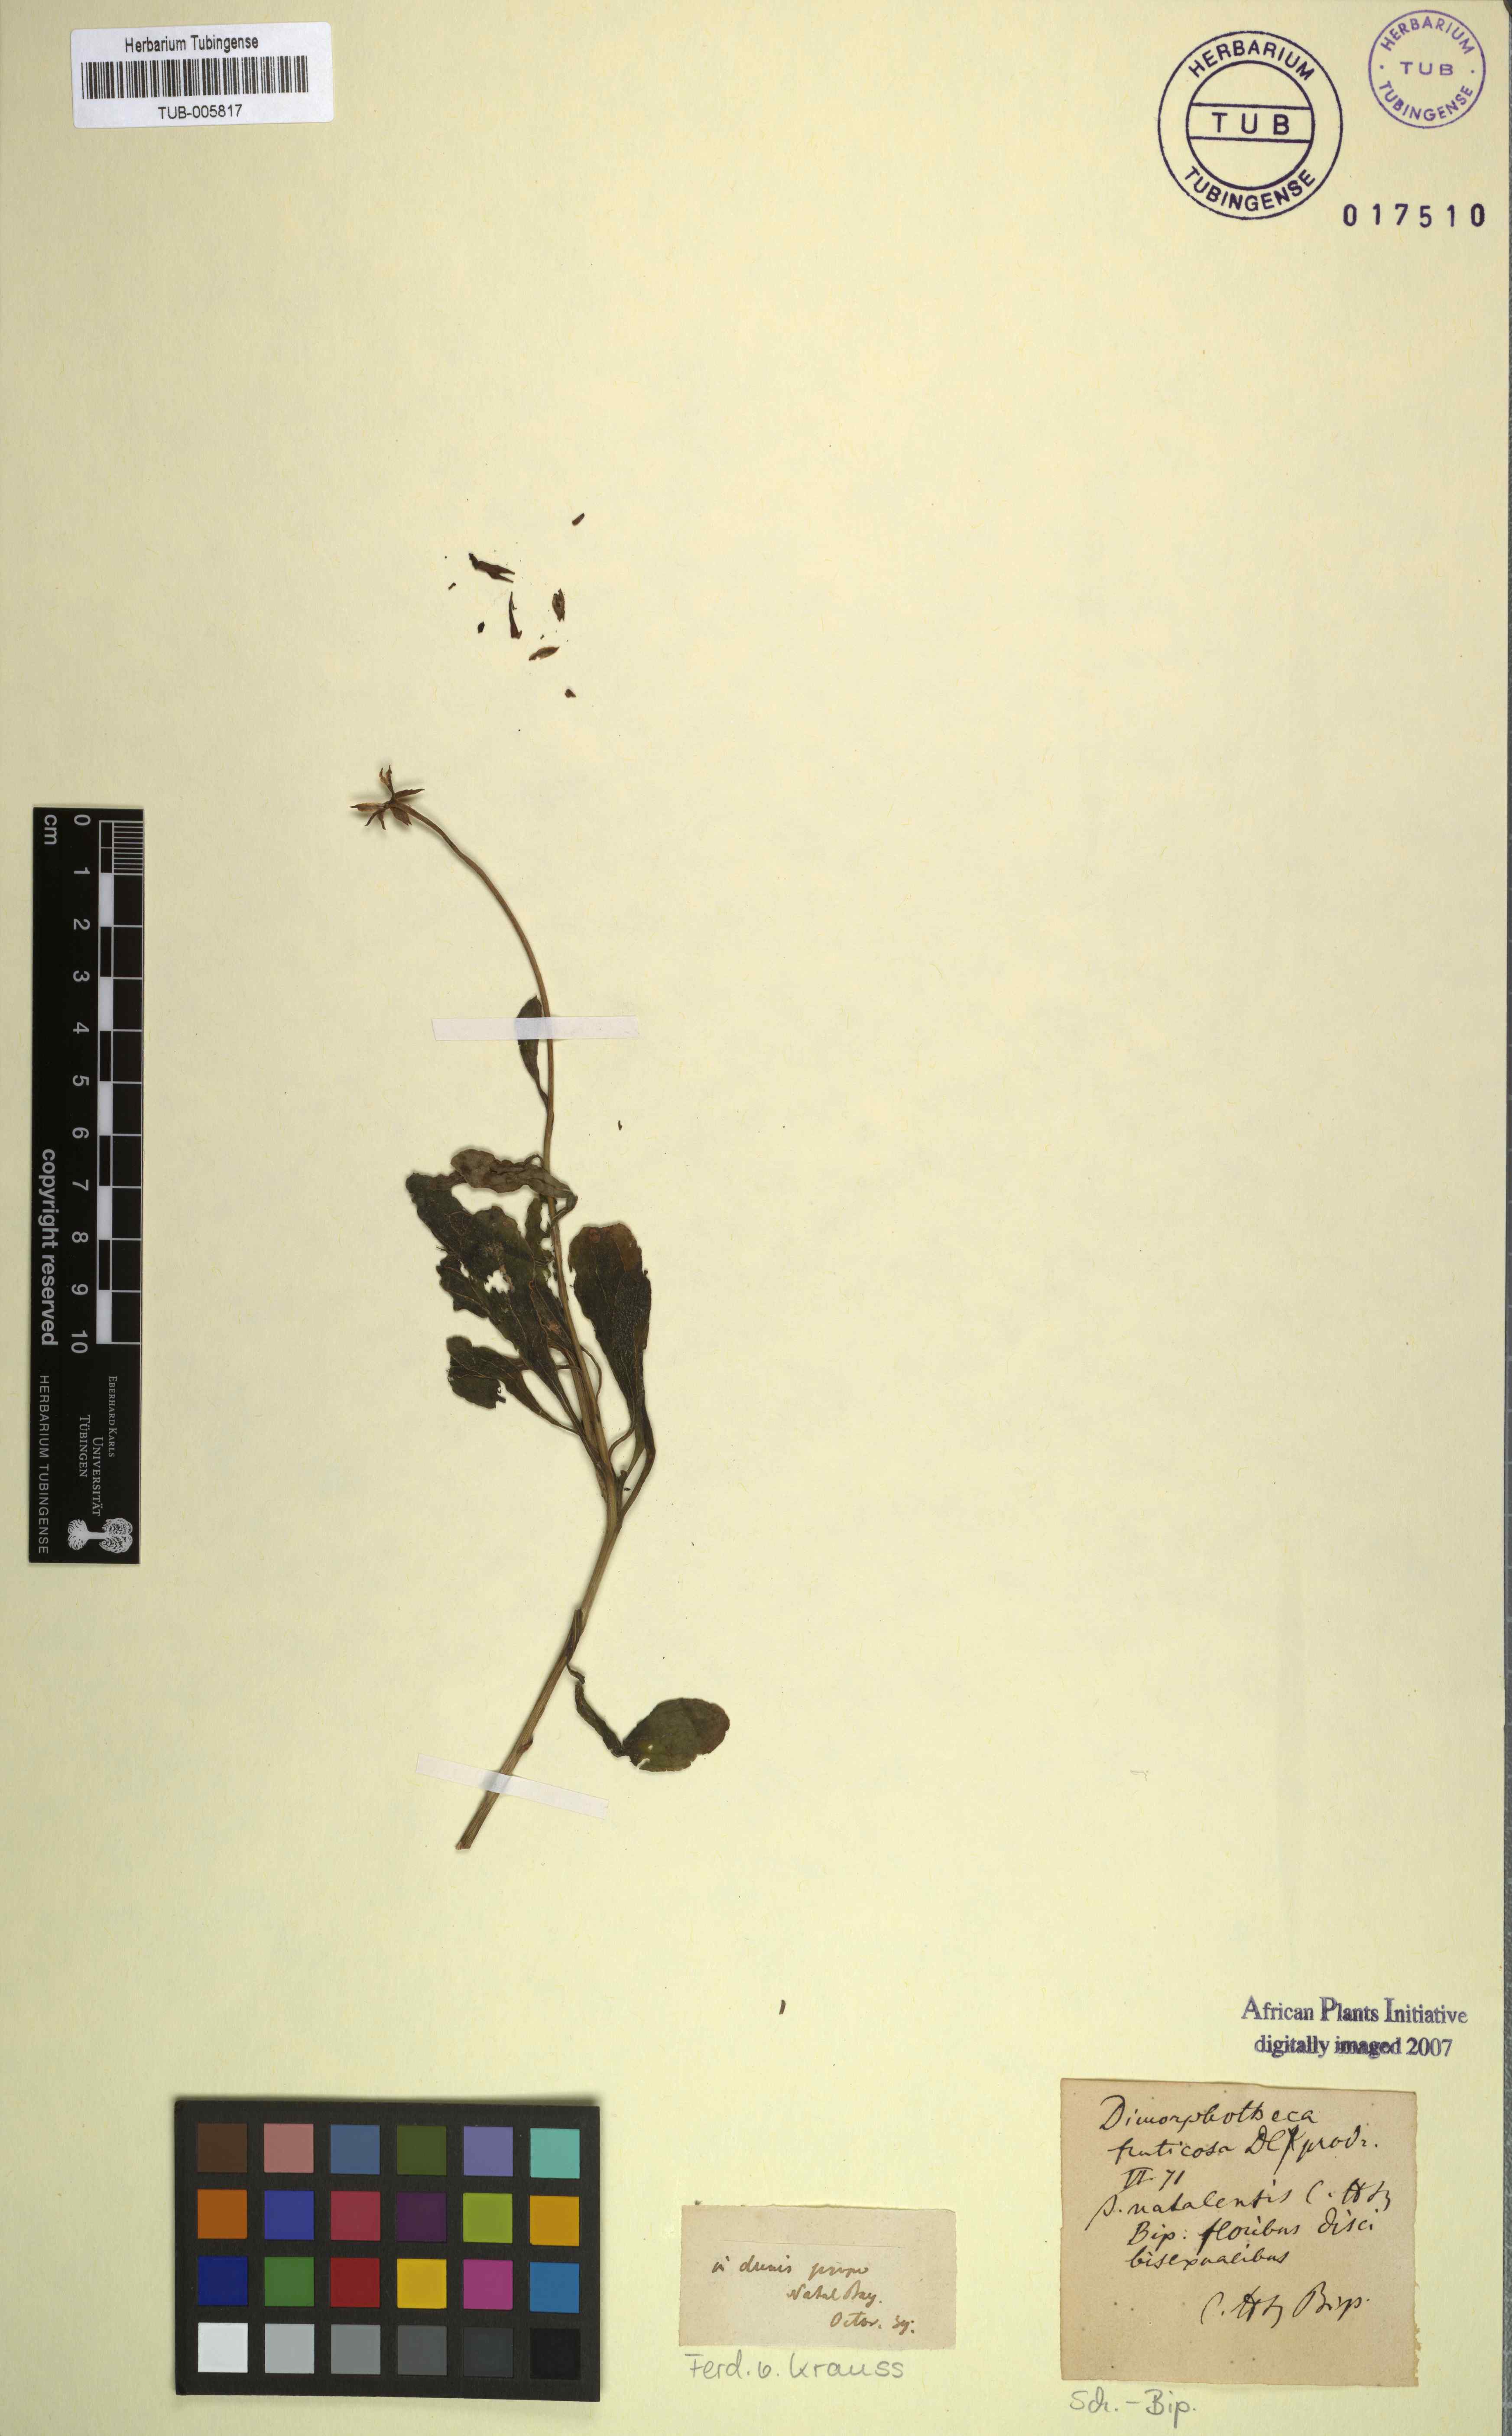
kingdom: Plantae
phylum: Tracheophyta
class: Magnoliopsida
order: Asterales
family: Asteraceae
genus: Osteospermum
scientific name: Osteospermum fruticosum
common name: Shrubby daisybush
